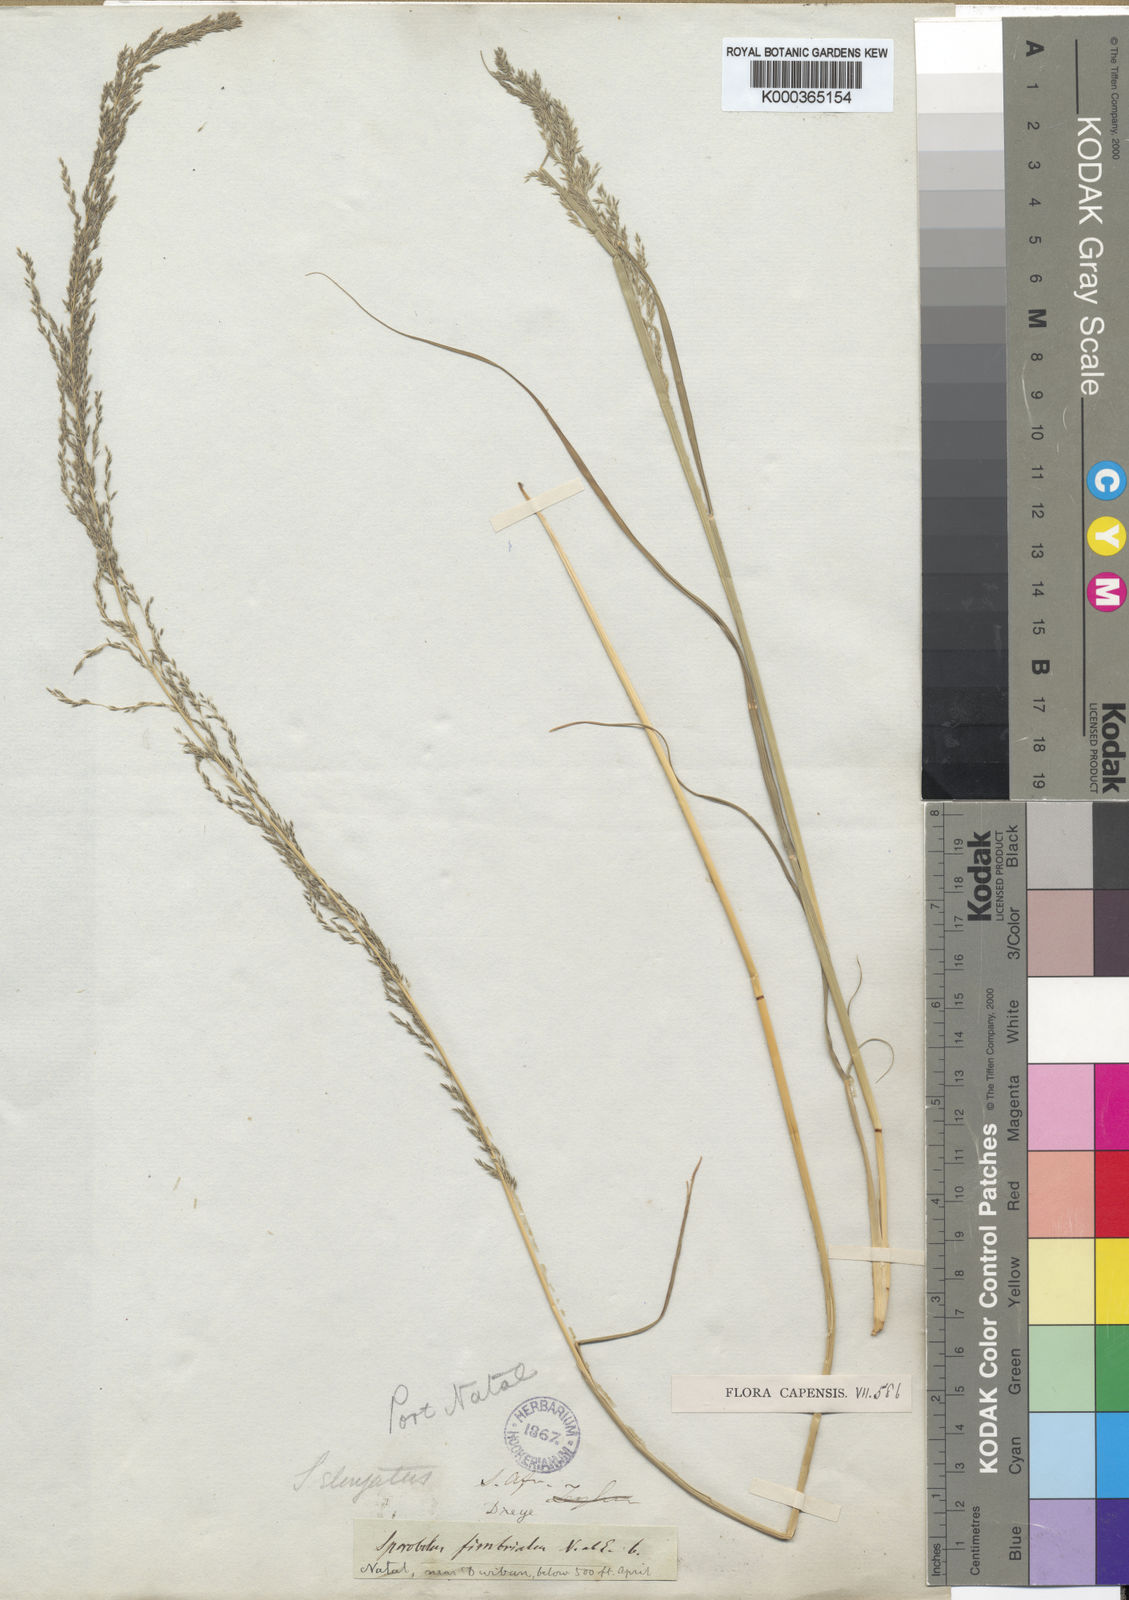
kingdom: Plantae
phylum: Tracheophyta
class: Liliopsida
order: Poales
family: Poaceae
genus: Sporobolus
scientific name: Sporobolus fimbriatus
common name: Fringed dropseed
